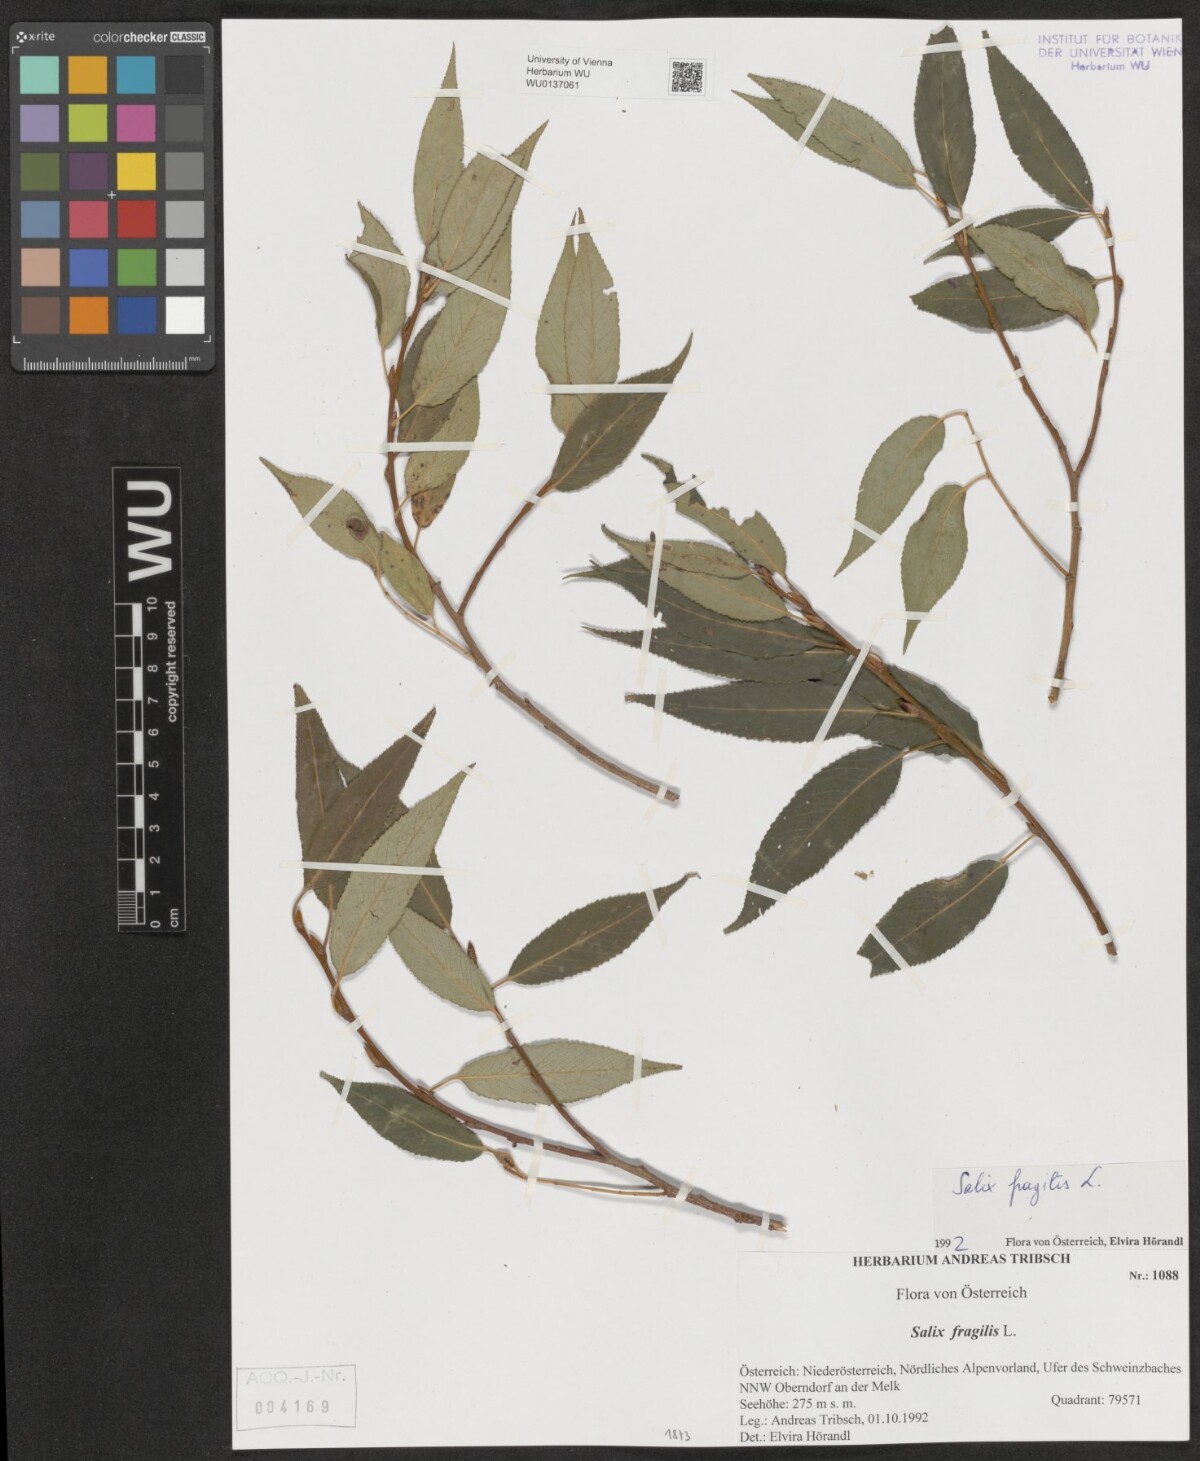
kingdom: Plantae
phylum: Tracheophyta
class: Magnoliopsida
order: Malpighiales
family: Salicaceae
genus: Salix
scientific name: Salix fragilis
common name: Crack willow
